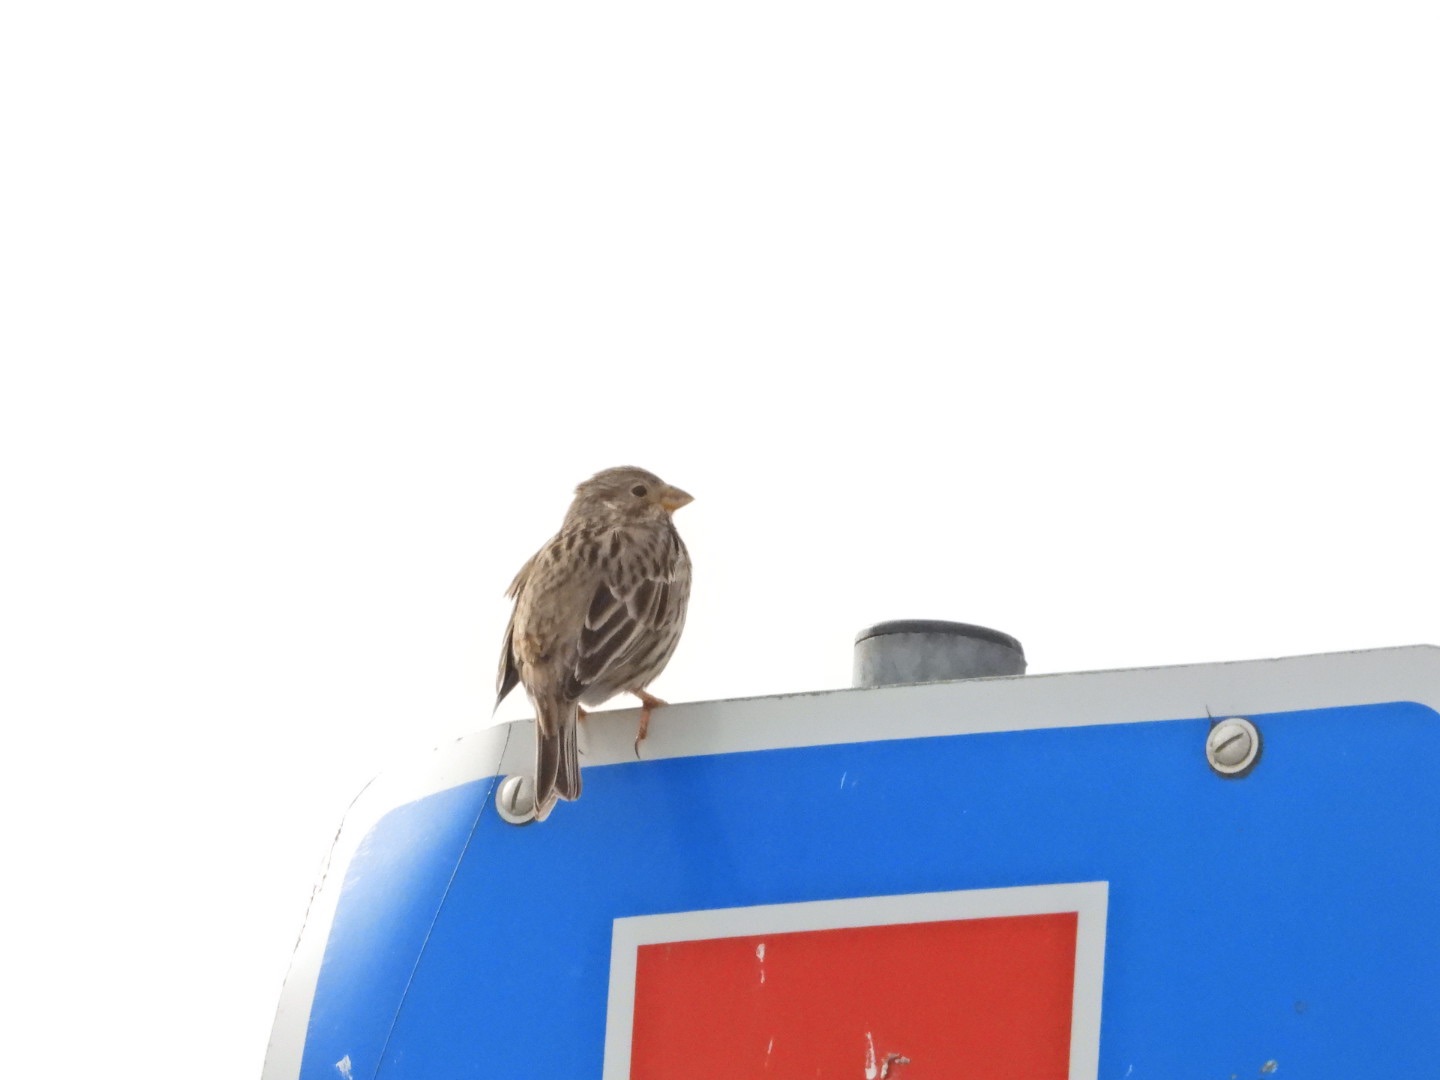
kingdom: Animalia
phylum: Chordata
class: Aves
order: Passeriformes
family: Emberizidae
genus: Emberiza
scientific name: Emberiza calandra
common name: Bomlærke
